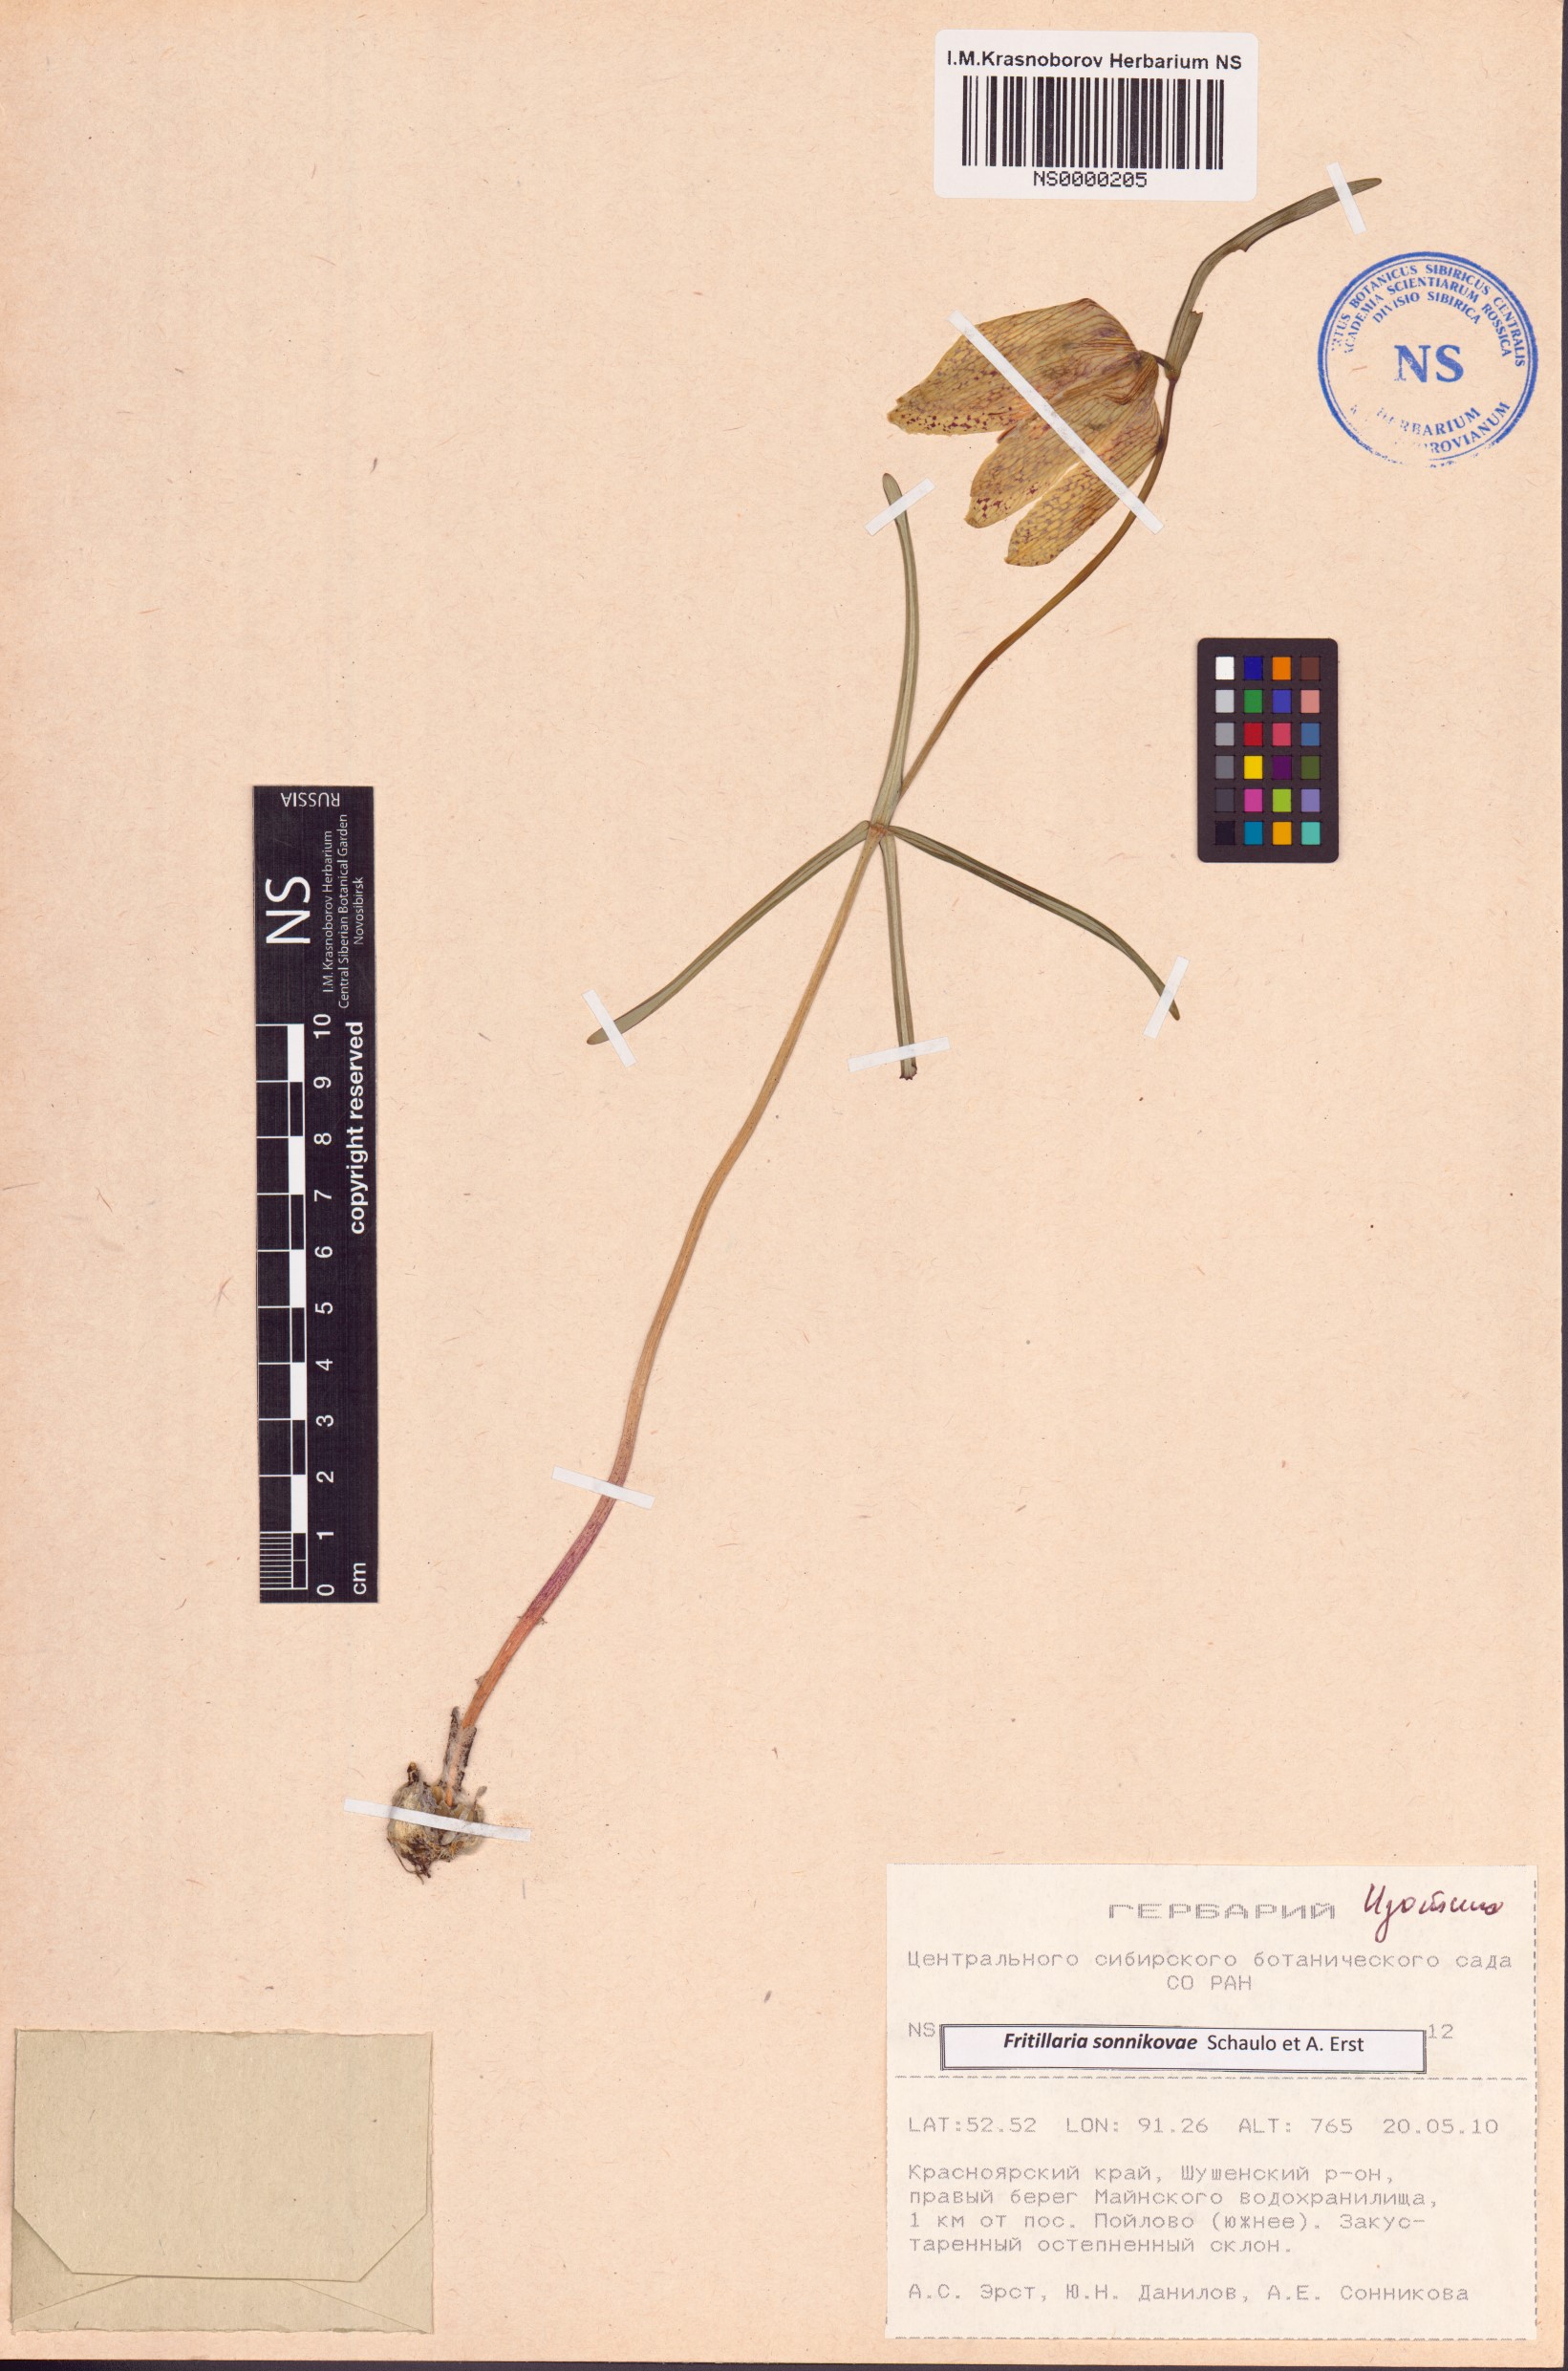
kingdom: Plantae
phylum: Tracheophyta
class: Liliopsida
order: Liliales
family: Liliaceae
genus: Fritillaria
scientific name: Fritillaria sonnikovae
